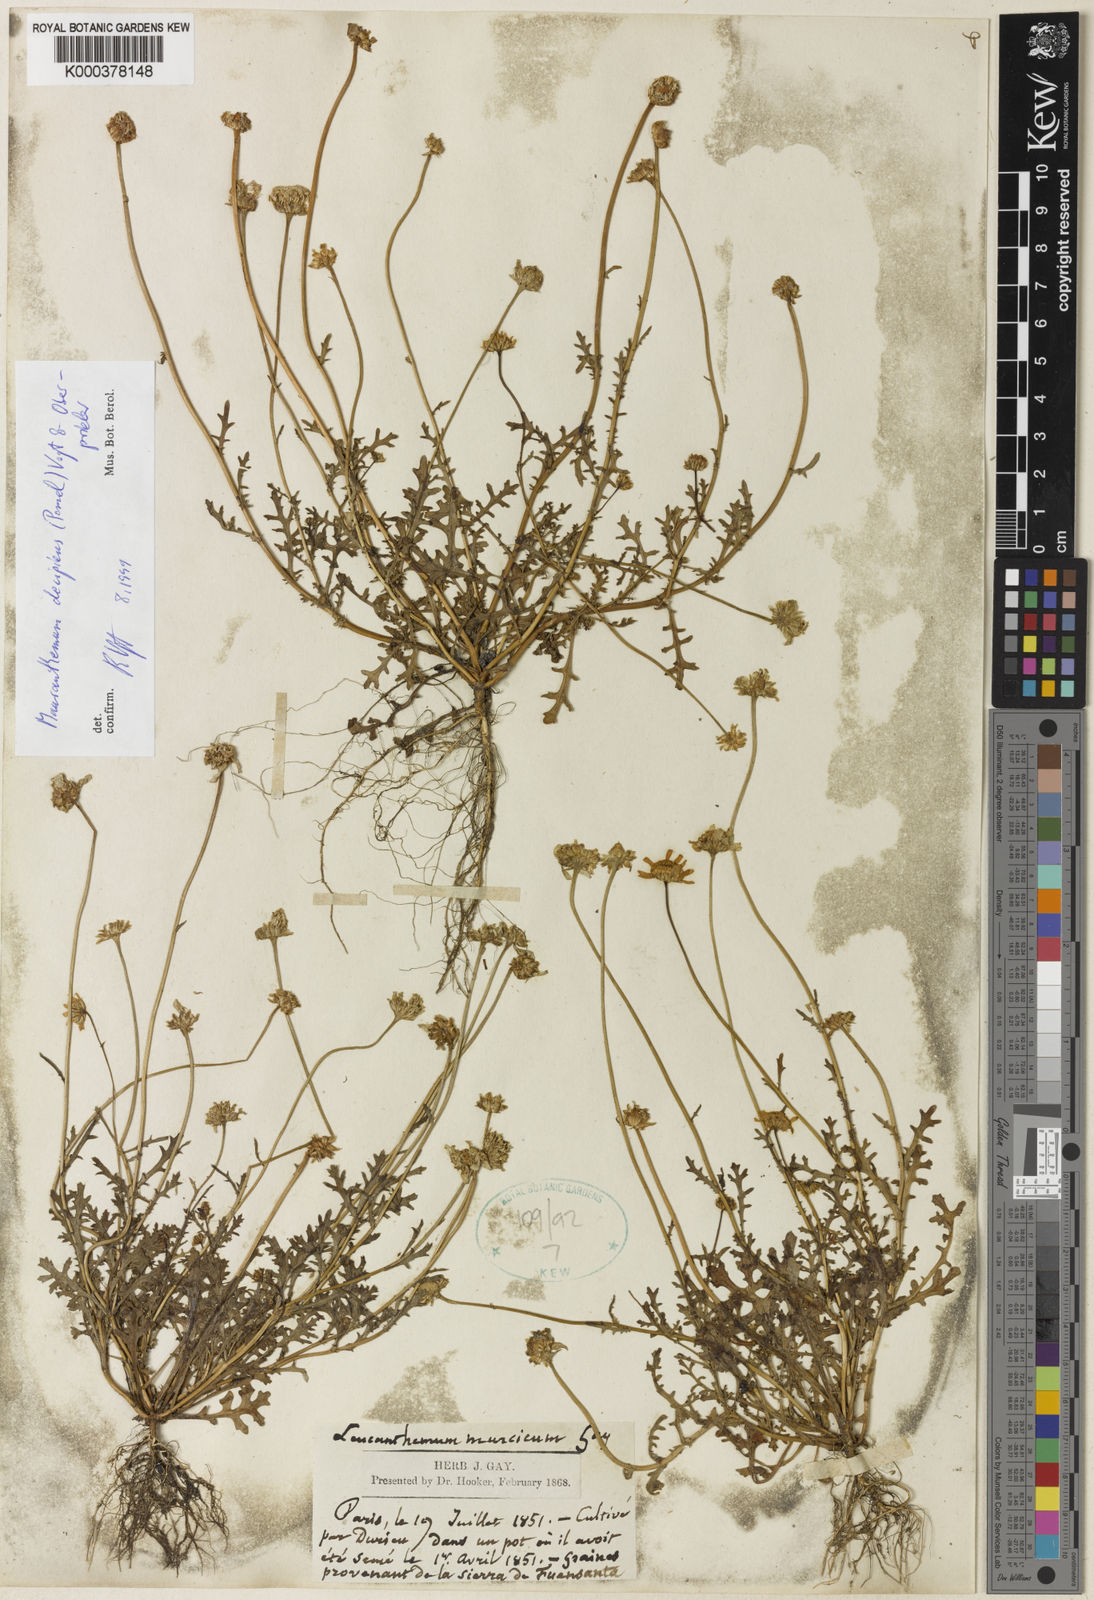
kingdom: Plantae
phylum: Tracheophyta
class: Magnoliopsida
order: Asterales
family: Asteraceae
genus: Mauranthemum
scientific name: Mauranthemum decipiens
